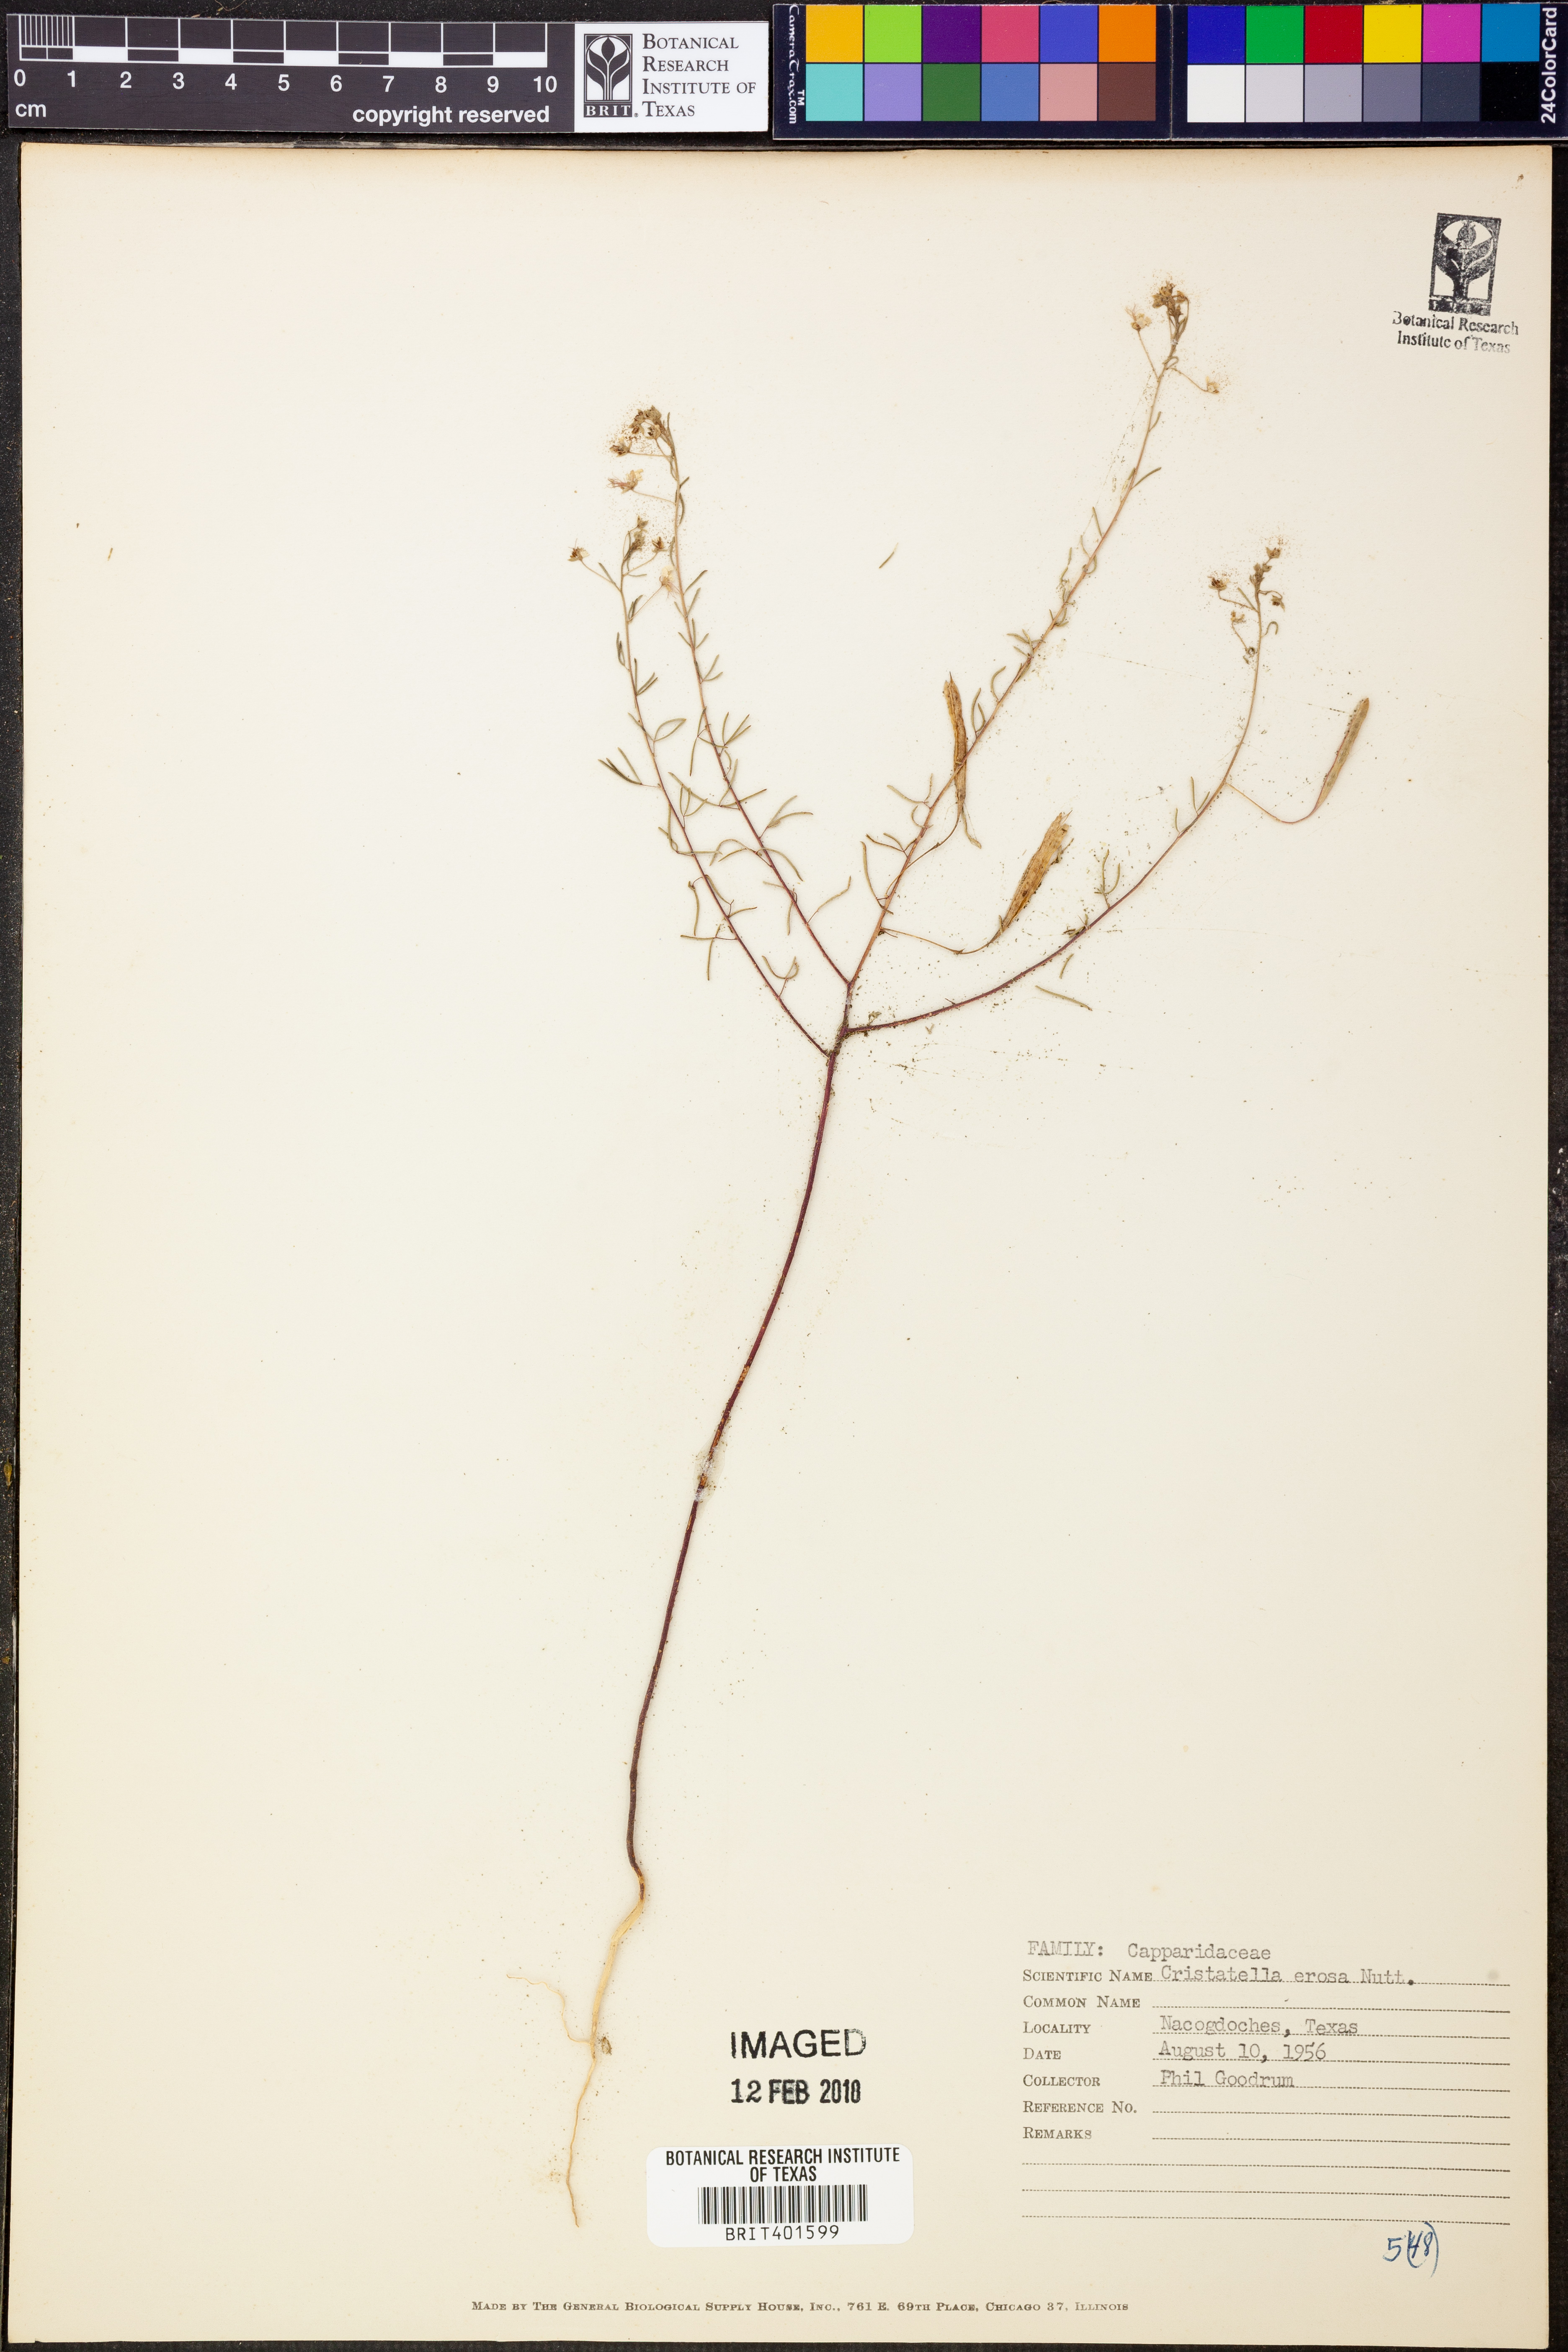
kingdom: Plantae
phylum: Tracheophyta
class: Magnoliopsida
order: Brassicales
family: Cleomaceae
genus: Polanisia
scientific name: Polanisia erosa
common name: Large clammyweed
